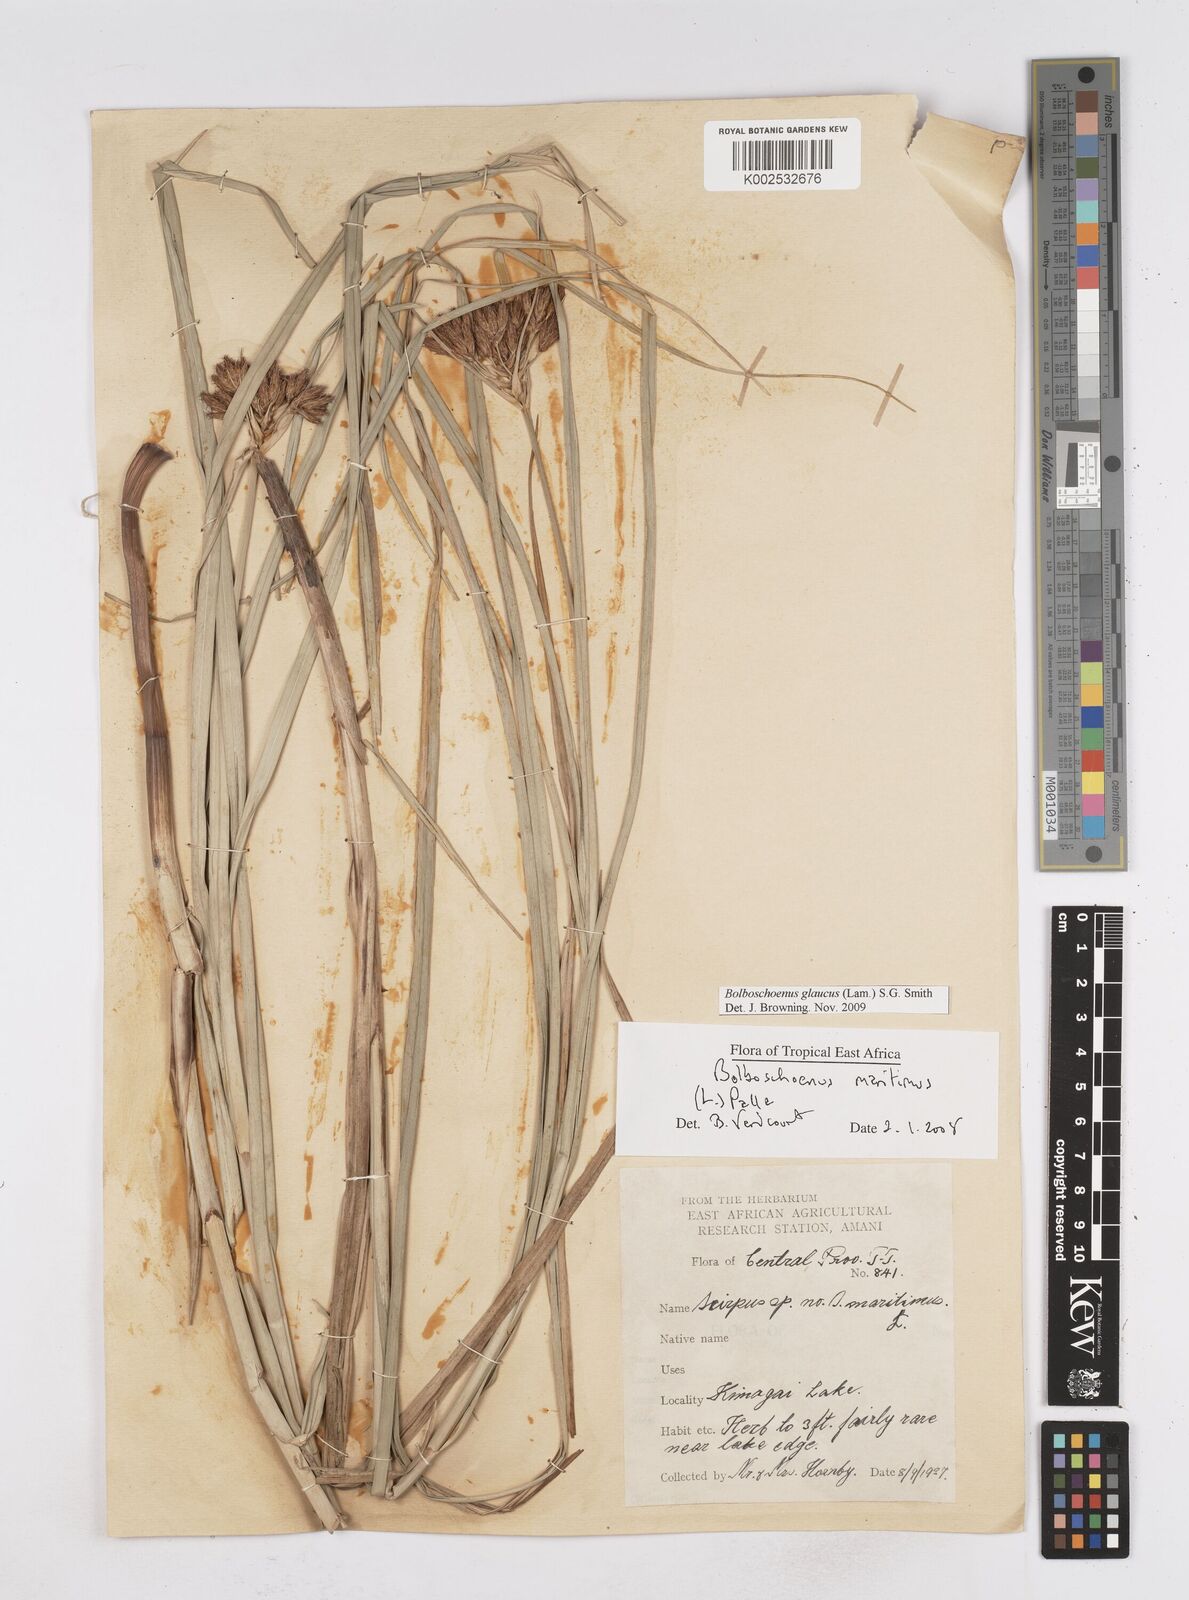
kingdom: Plantae
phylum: Tracheophyta
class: Liliopsida
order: Poales
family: Cyperaceae
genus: Bolboschoenus
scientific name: Bolboschoenus glaucus
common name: Tuberous bulrush
